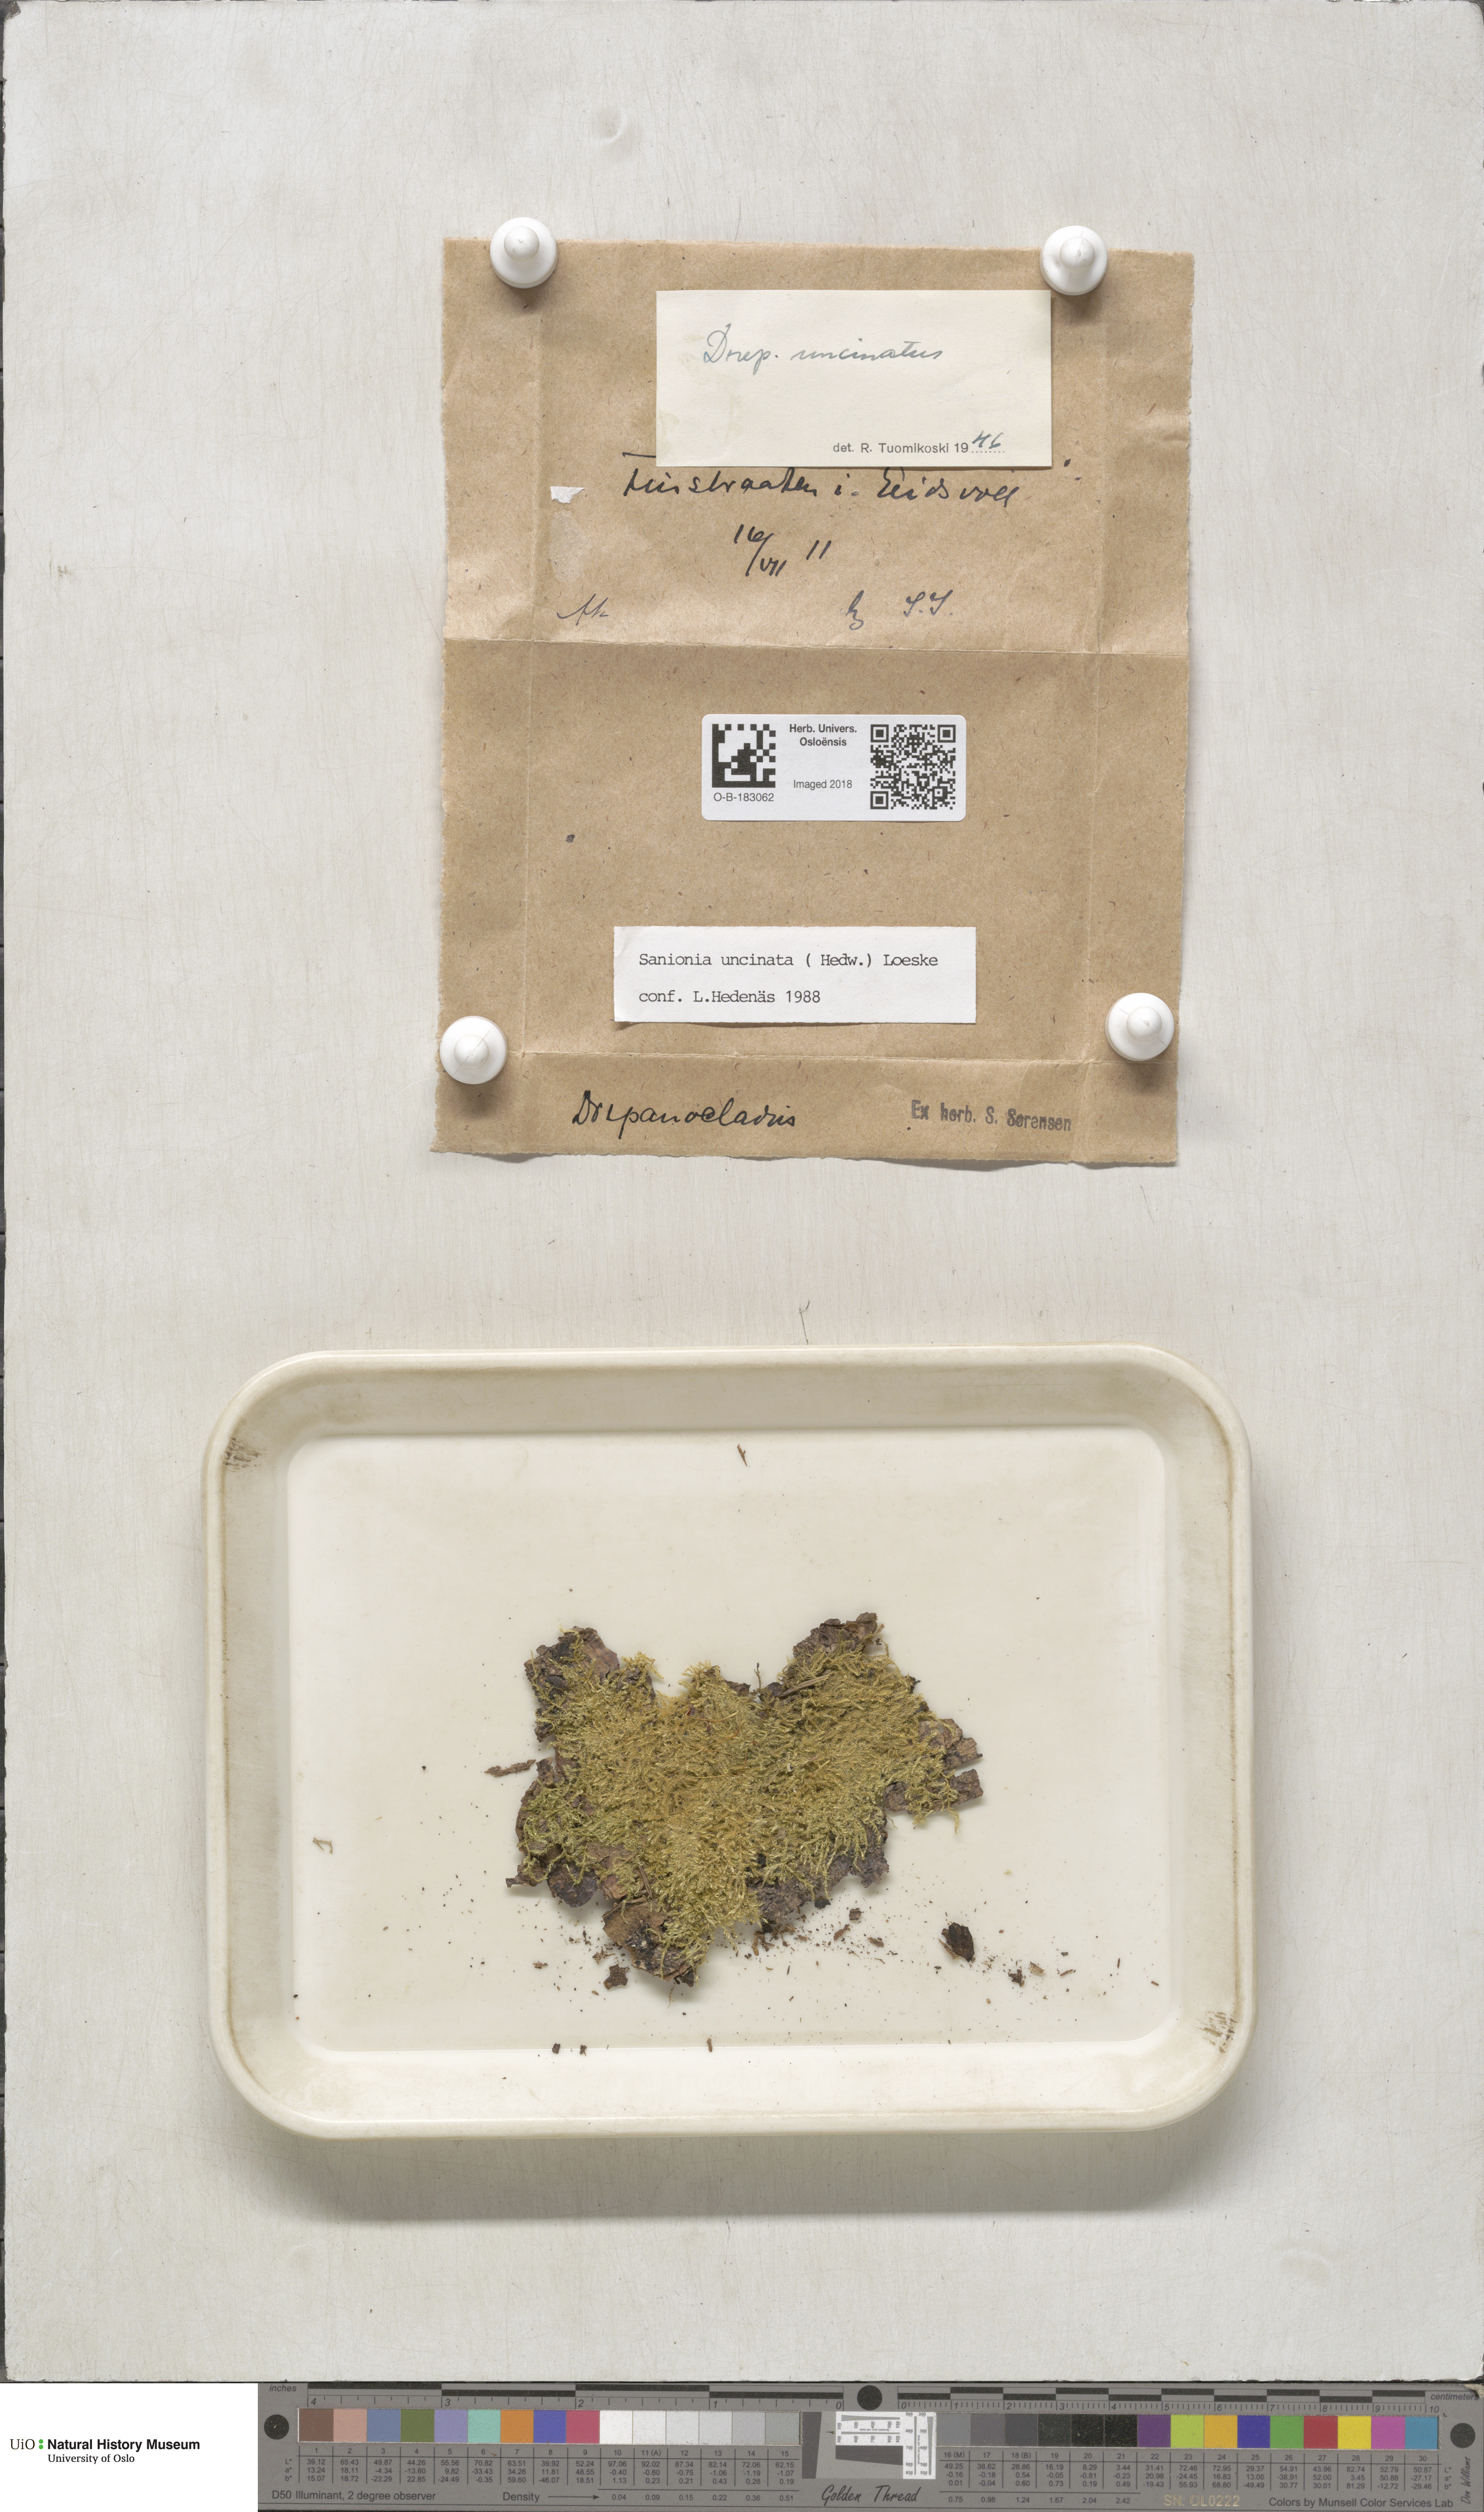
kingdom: Plantae
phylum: Bryophyta
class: Bryopsida
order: Hypnales
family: Scorpidiaceae
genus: Sanionia
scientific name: Sanionia uncinata
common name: Sickle moss
